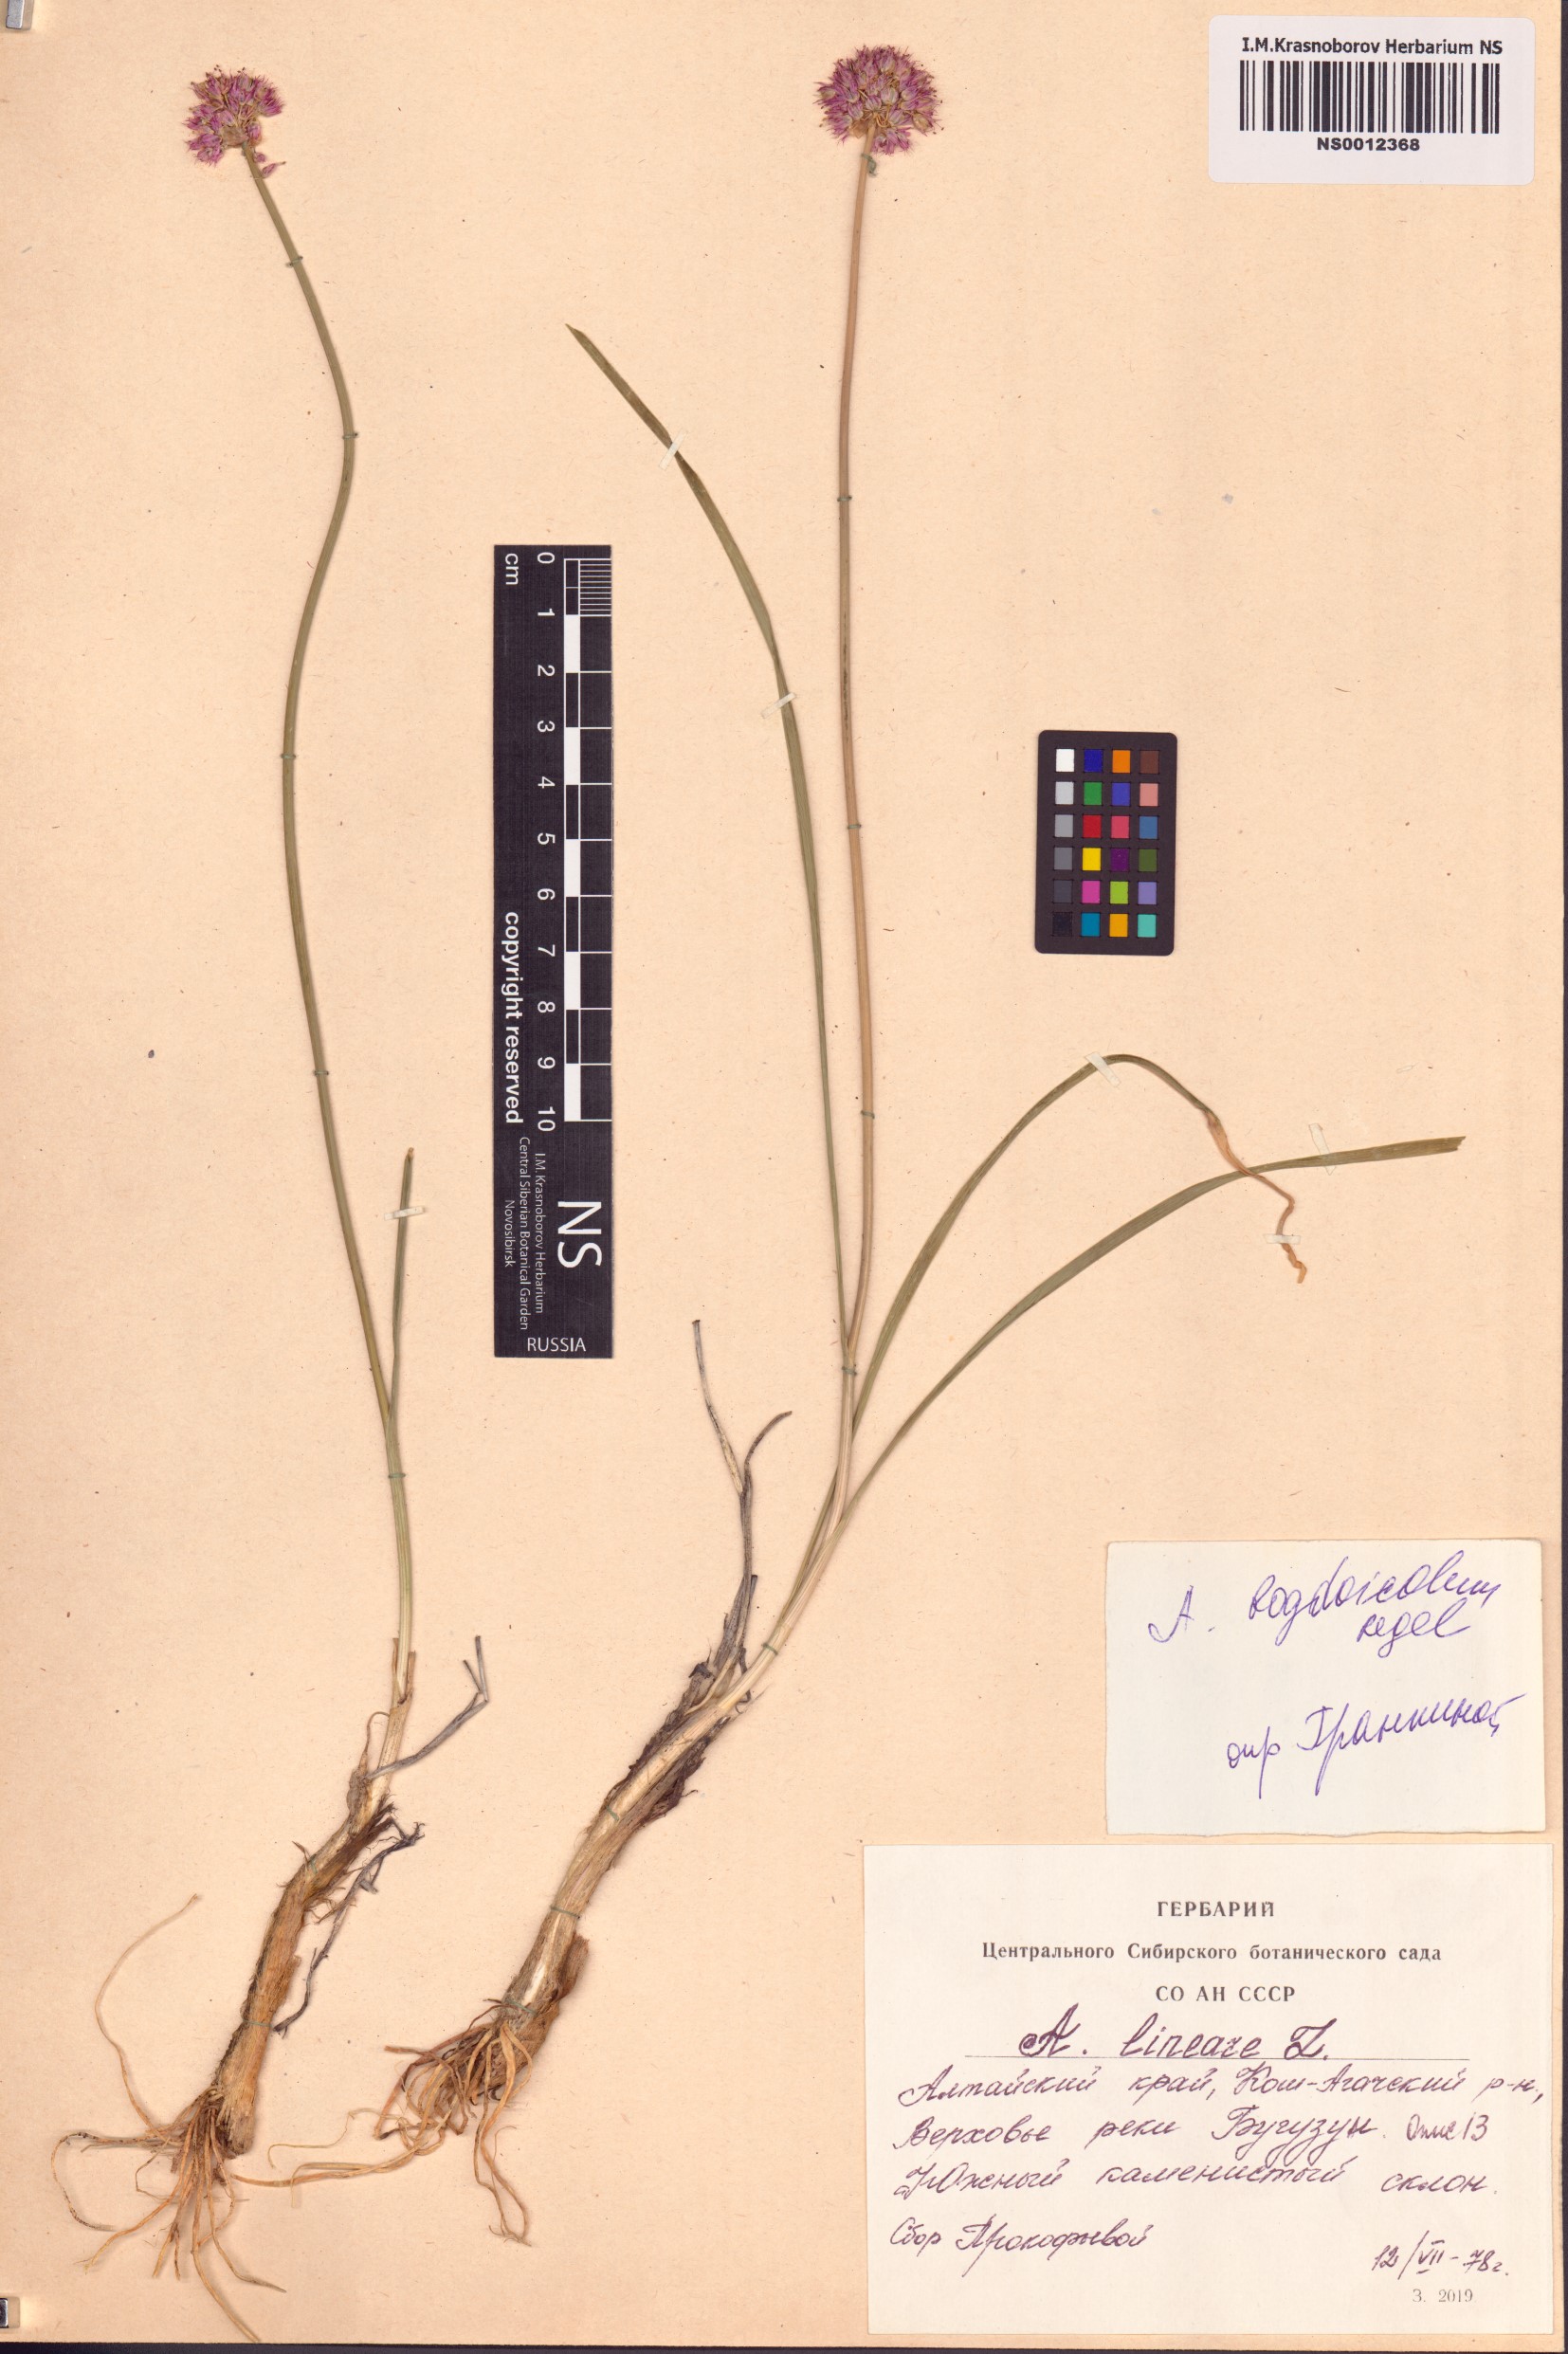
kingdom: Plantae
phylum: Tracheophyta
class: Liliopsida
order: Asparagales
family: Amaryllidaceae
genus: Allium
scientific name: Allium schrenkii
